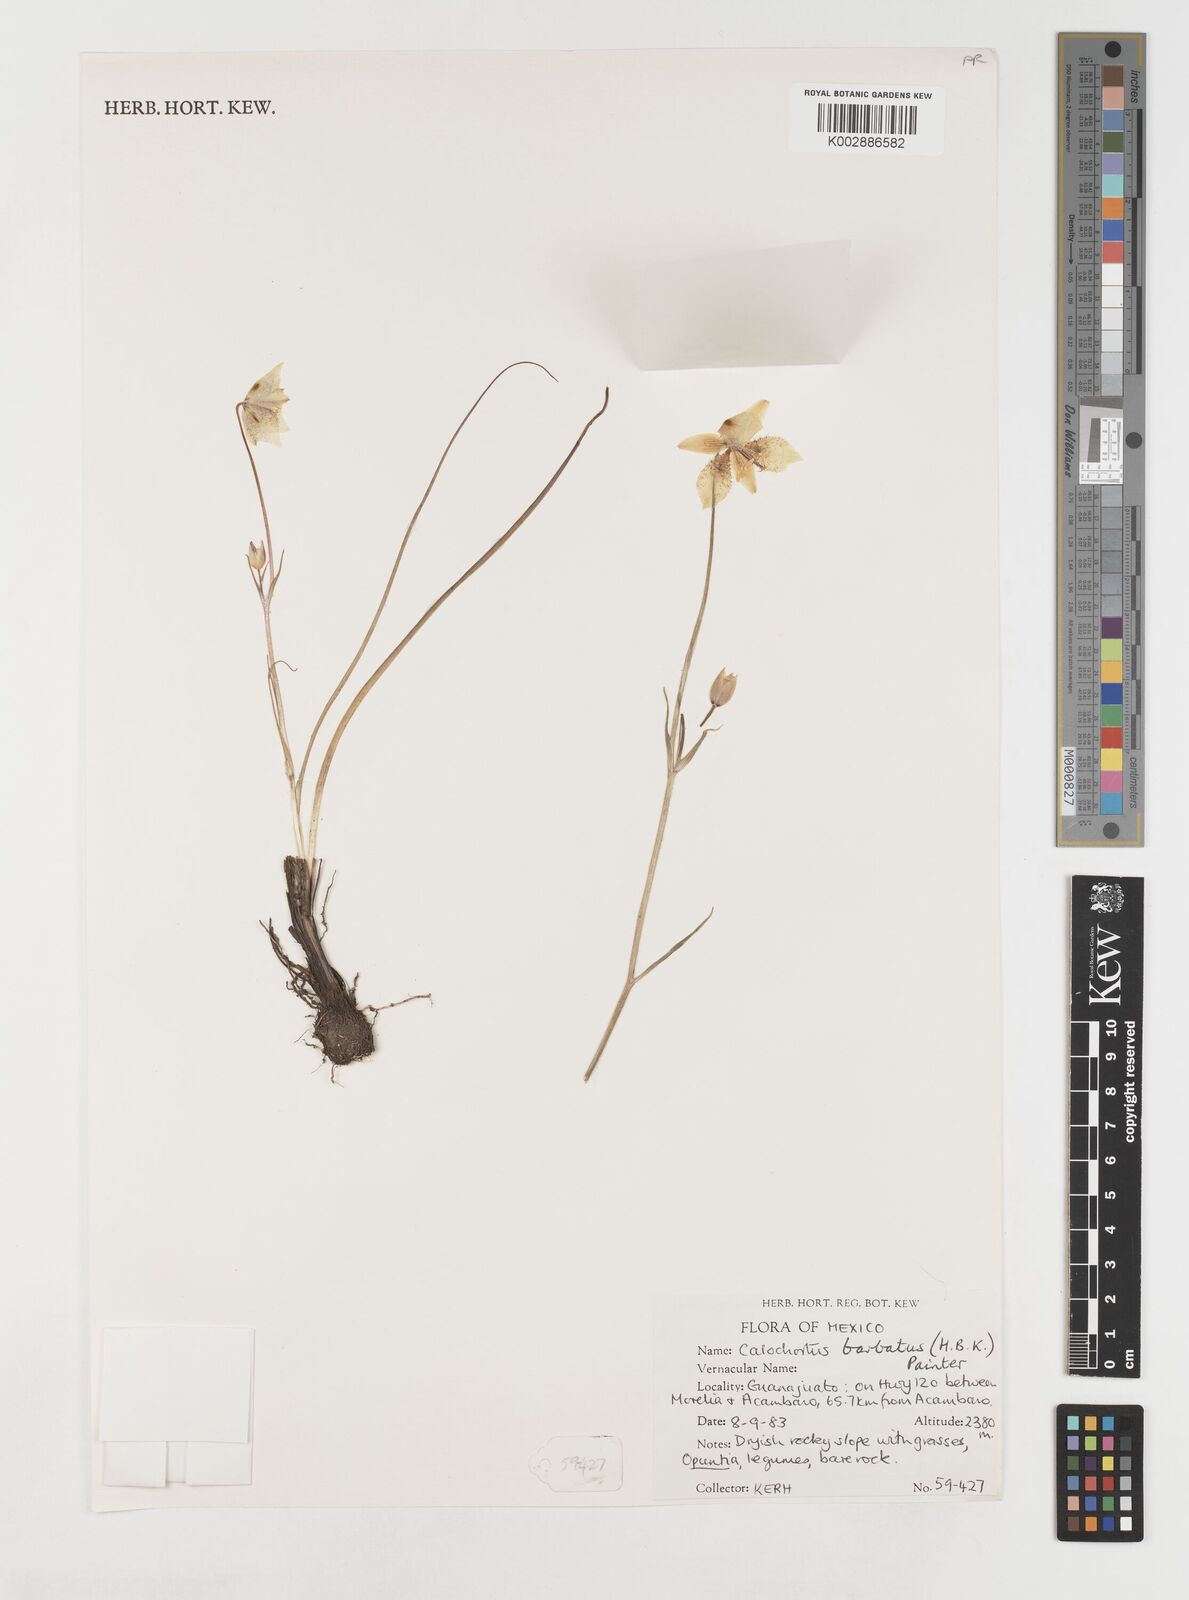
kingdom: Plantae
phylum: Tracheophyta
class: Liliopsida
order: Liliales
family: Liliaceae
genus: Calochortus
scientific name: Calochortus barbatus
